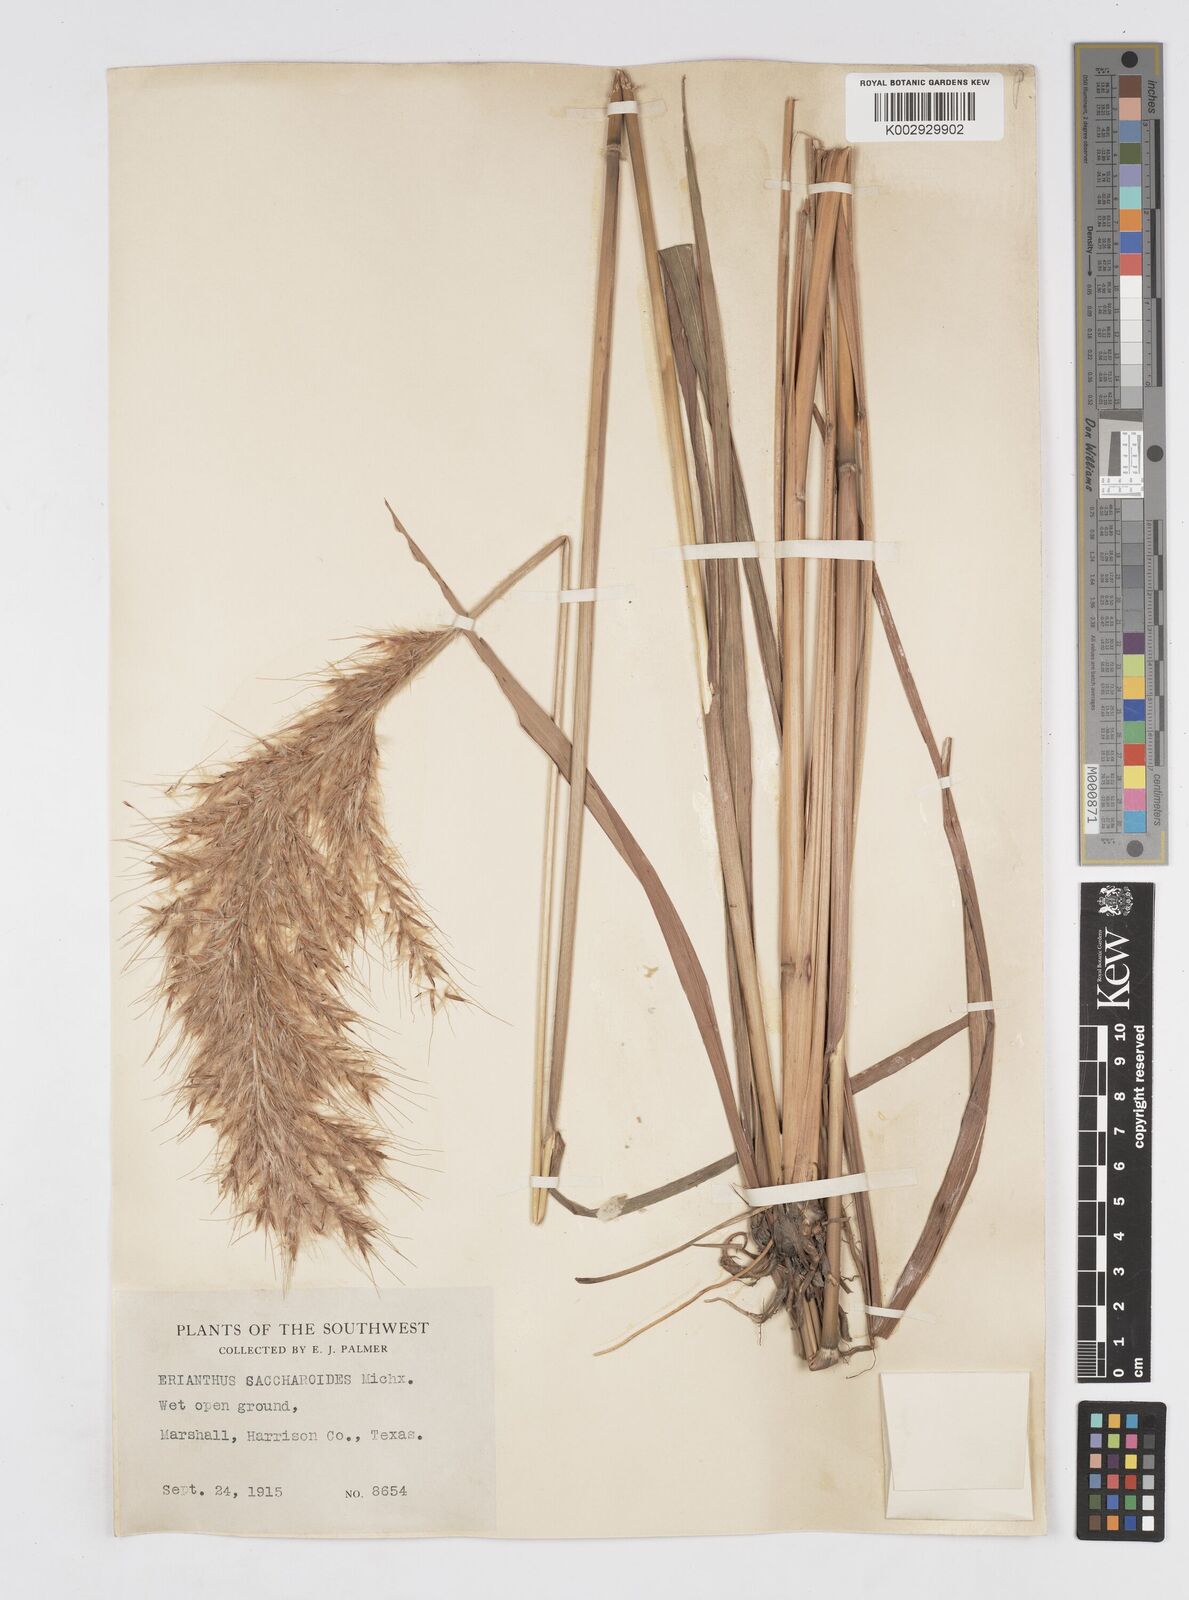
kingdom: Plantae
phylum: Tracheophyta
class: Liliopsida
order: Poales
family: Poaceae
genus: Saccharum
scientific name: Saccharum
